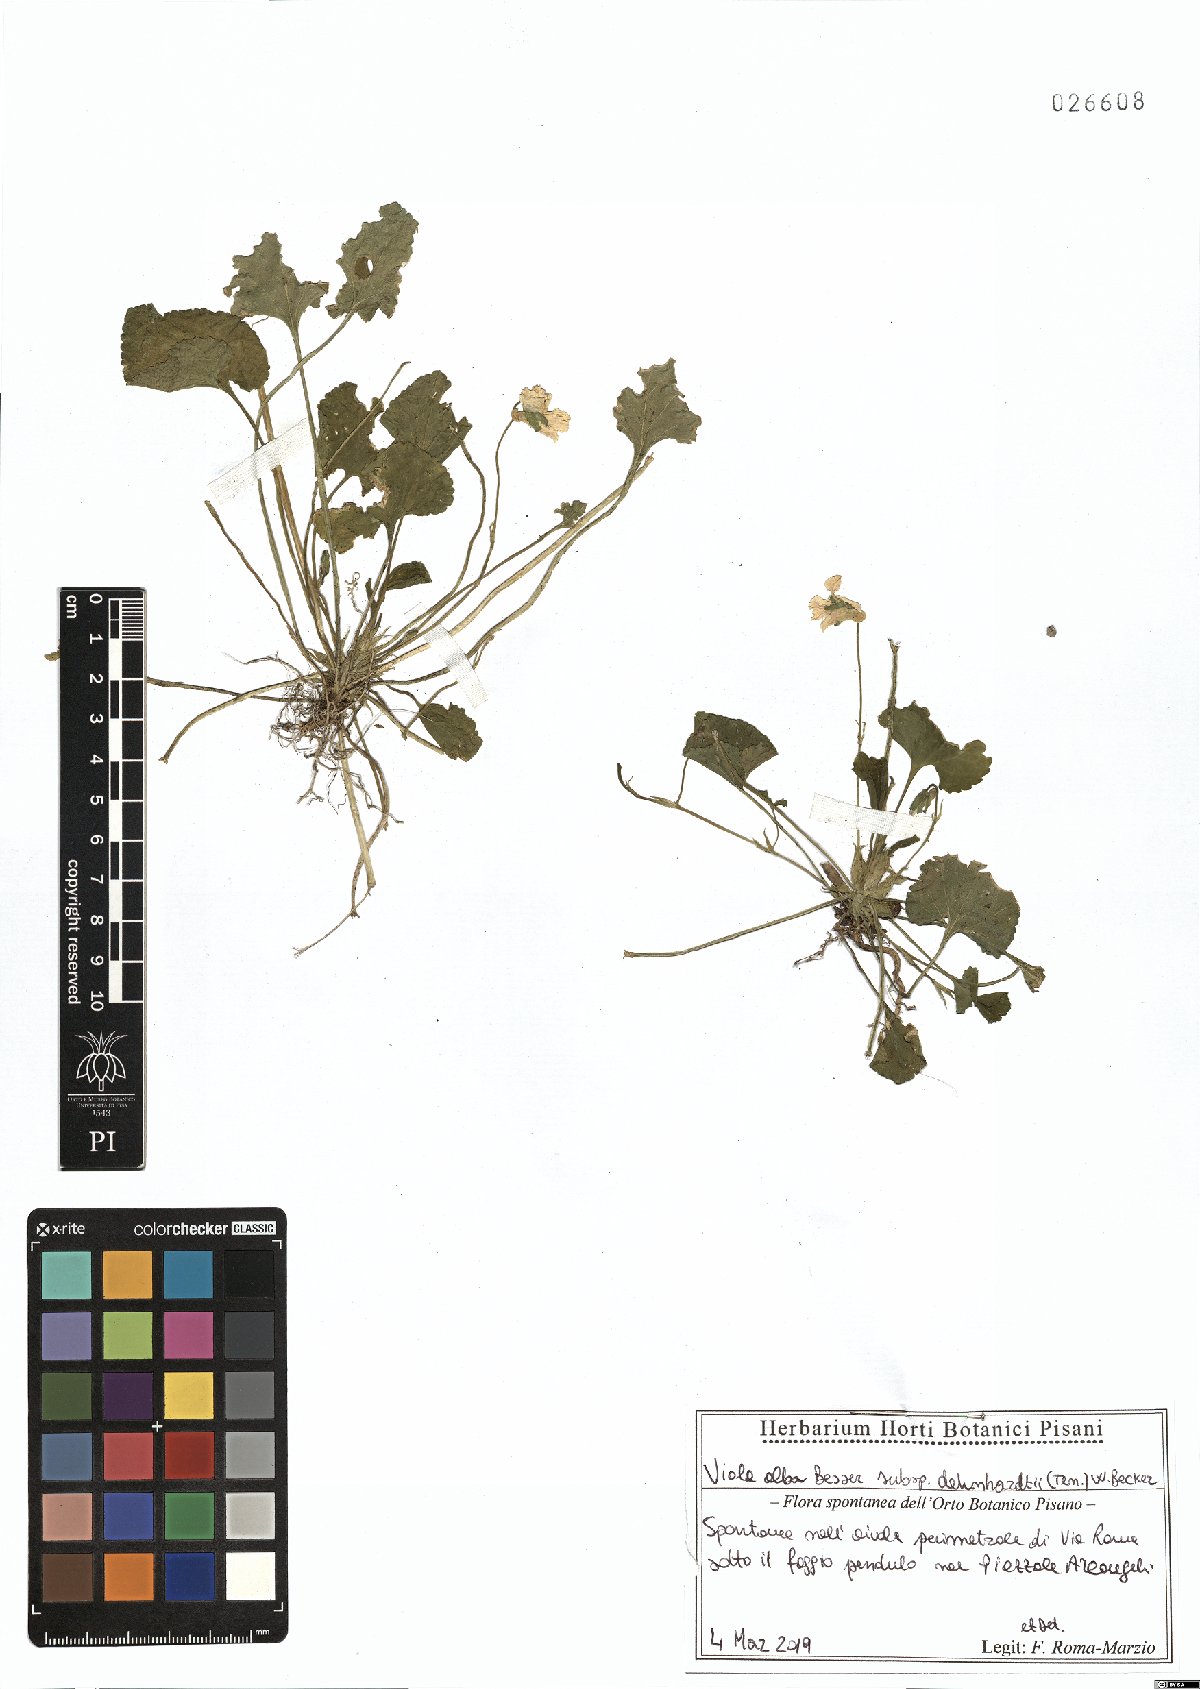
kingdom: Plantae
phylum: Tracheophyta
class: Magnoliopsida
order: Malpighiales
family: Violaceae
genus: Viola
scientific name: Viola alba
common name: White violet
